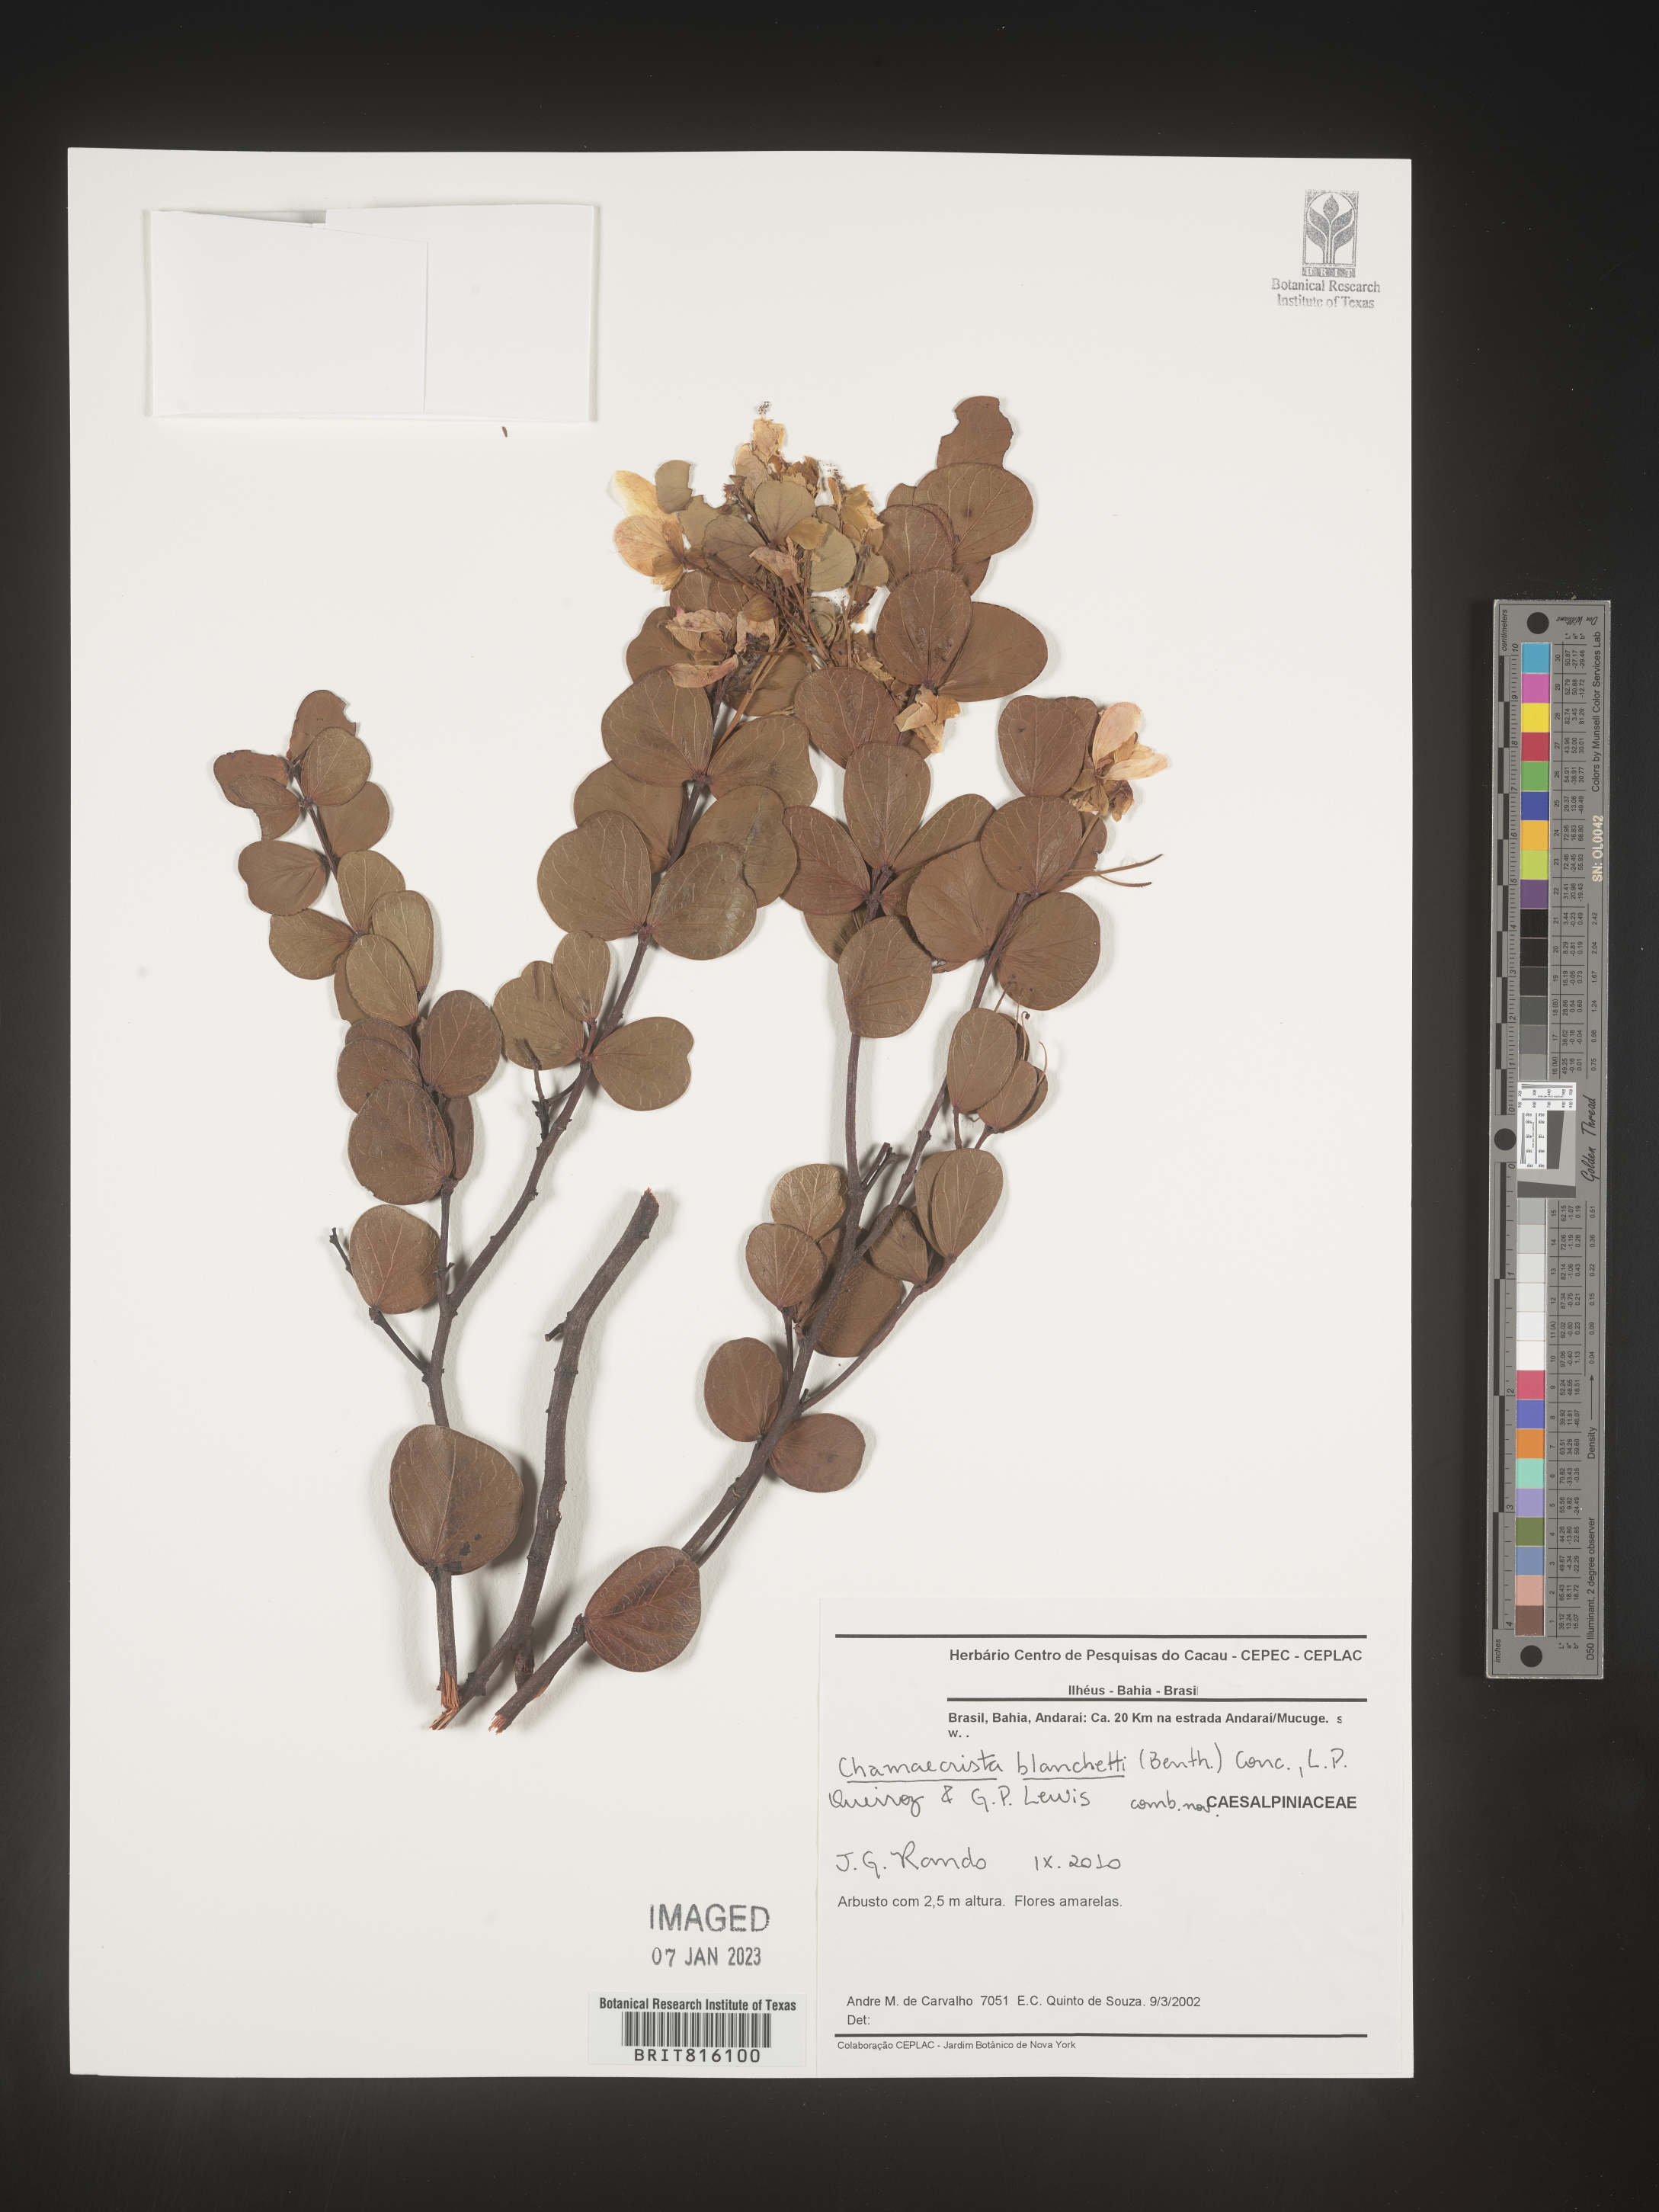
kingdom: Plantae
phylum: Tracheophyta
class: Magnoliopsida
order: Fabales
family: Fabaceae
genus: Chamaecrista
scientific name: Chamaecrista
